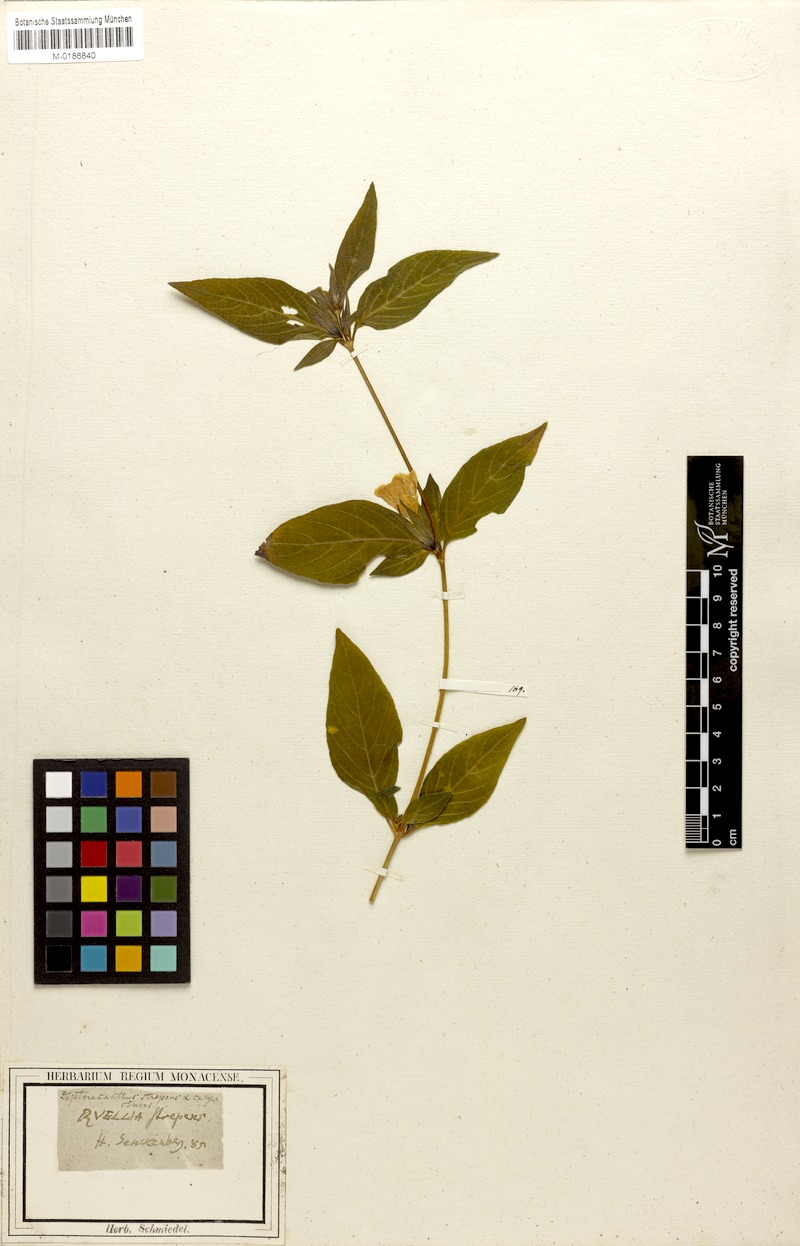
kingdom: Plantae
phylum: Tracheophyta
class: Magnoliopsida
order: Lamiales
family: Acanthaceae
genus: Ruellia
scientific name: Ruellia strepens
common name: Limestone wild petunia
